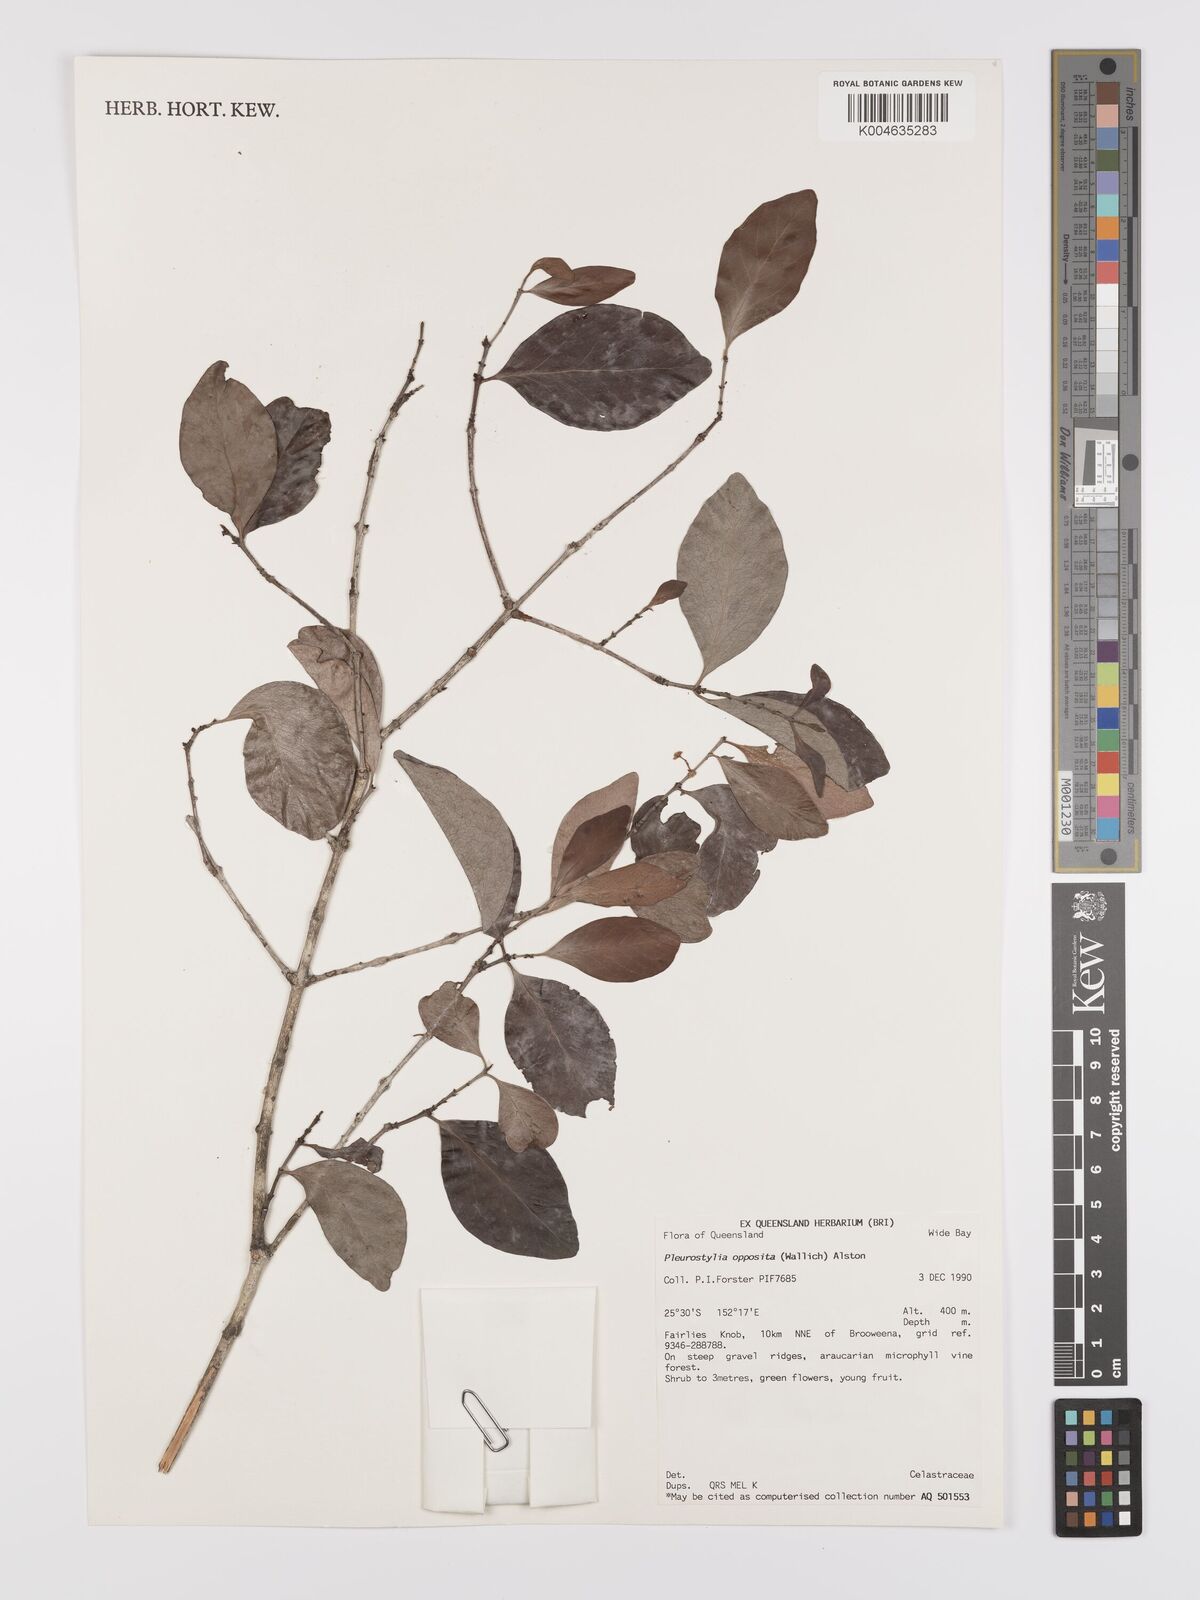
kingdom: Plantae
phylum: Tracheophyta
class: Magnoliopsida
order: Celastrales
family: Celastraceae
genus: Pleurostylia
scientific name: Pleurostylia opposita
